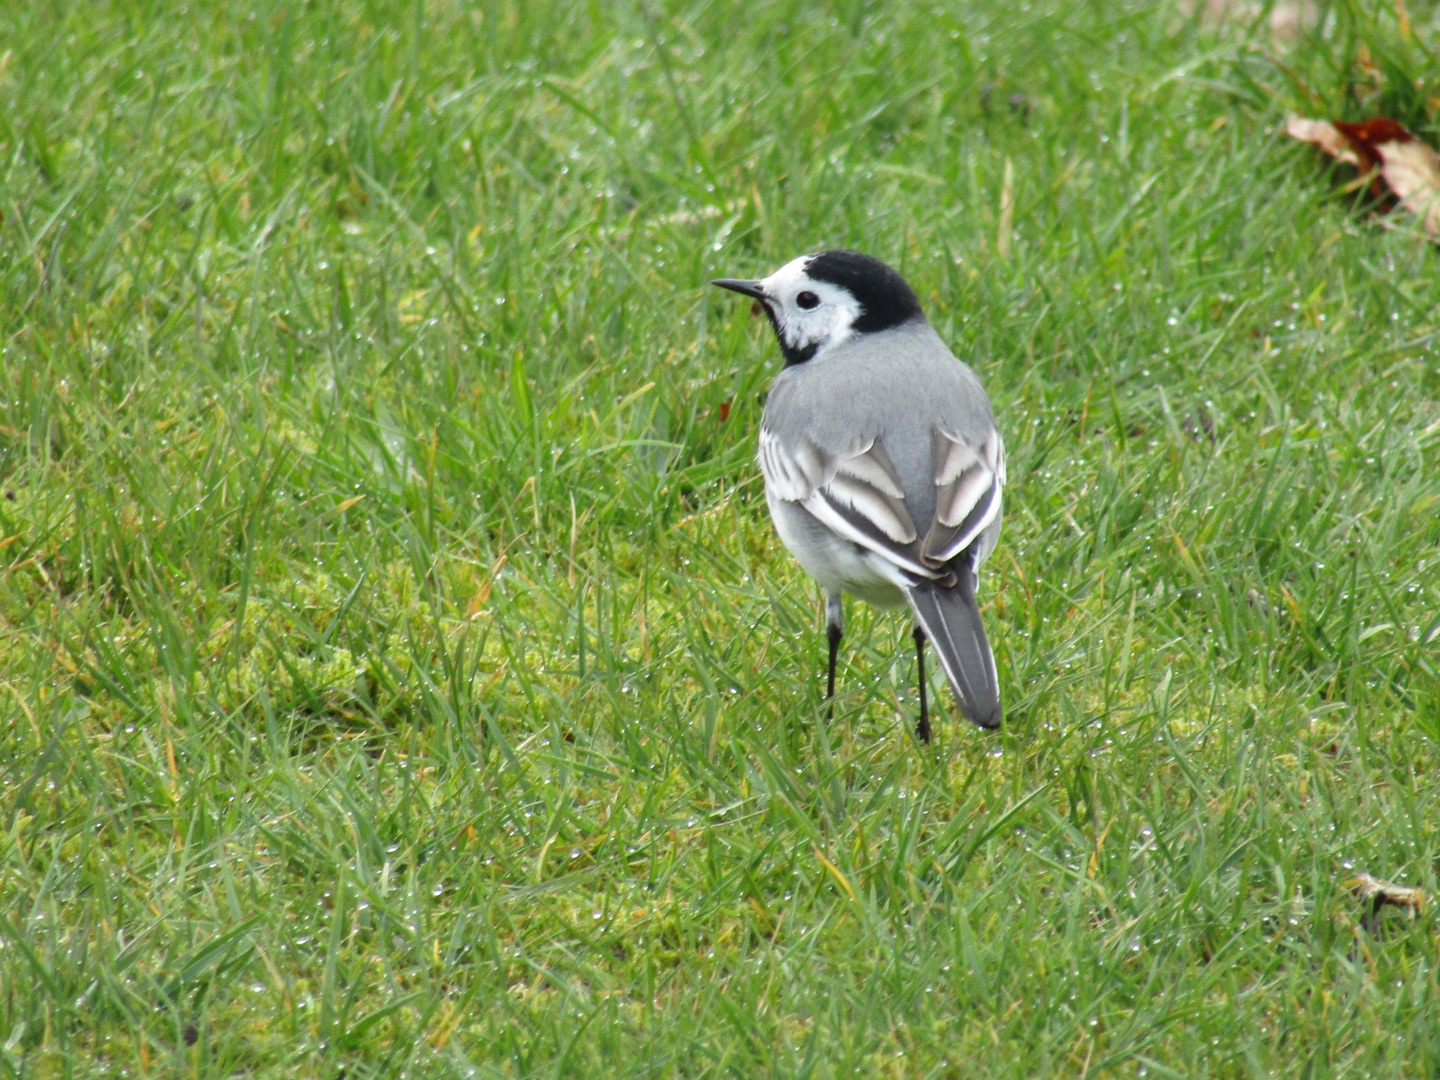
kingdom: Animalia
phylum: Chordata
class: Aves
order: Passeriformes
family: Motacillidae
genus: Motacilla
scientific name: Motacilla alba
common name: Hvid vipstjert
